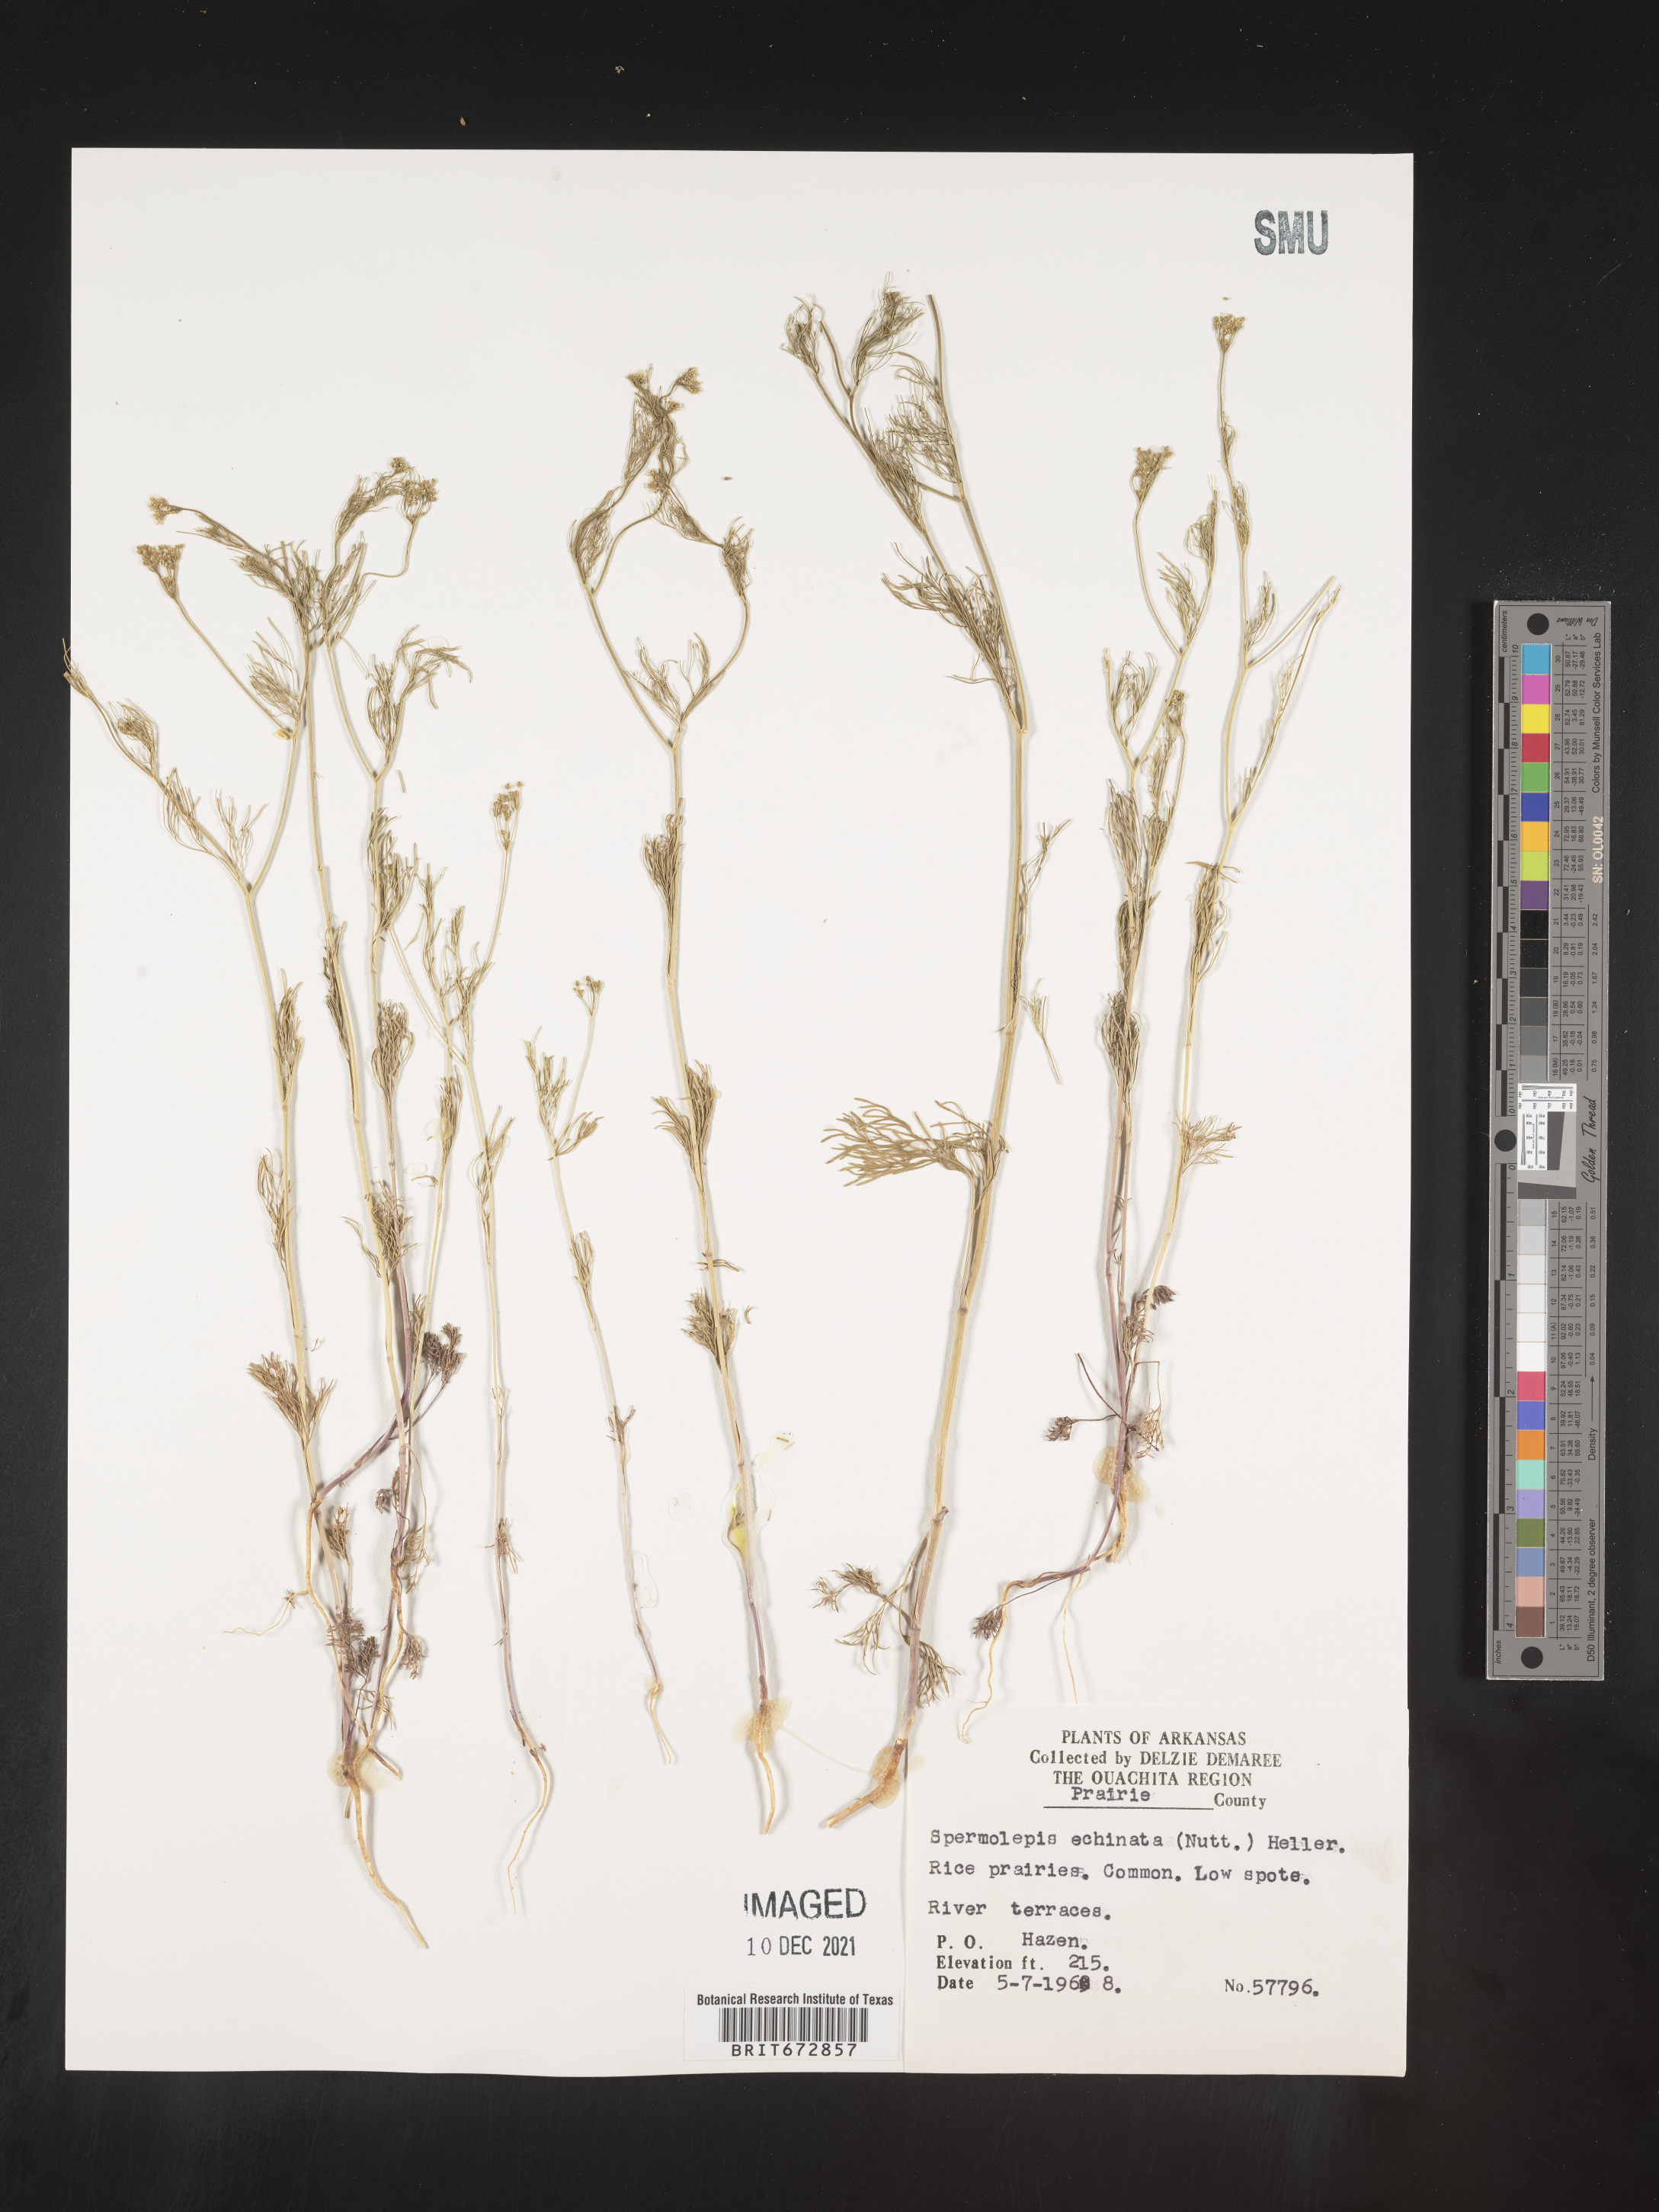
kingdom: Plantae
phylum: Tracheophyta
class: Magnoliopsida
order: Apiales
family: Apiaceae
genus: Spermolepis
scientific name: Spermolepis echinata
